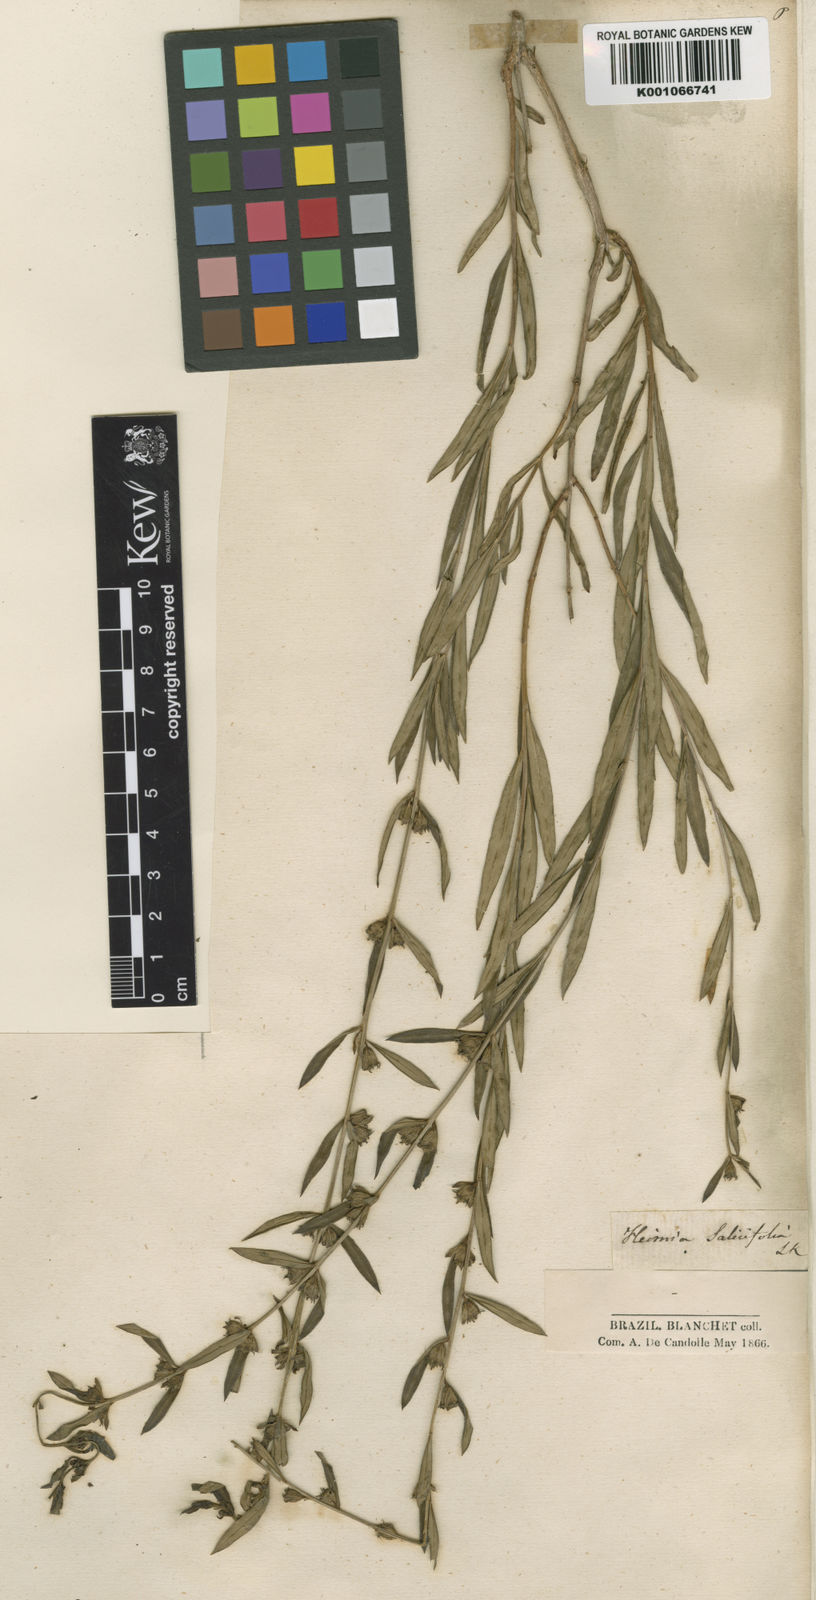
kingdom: Plantae
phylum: Tracheophyta
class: Magnoliopsida
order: Myrtales
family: Lythraceae
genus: Heimia
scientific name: Heimia salicifolia
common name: Willow-leaf heimia
